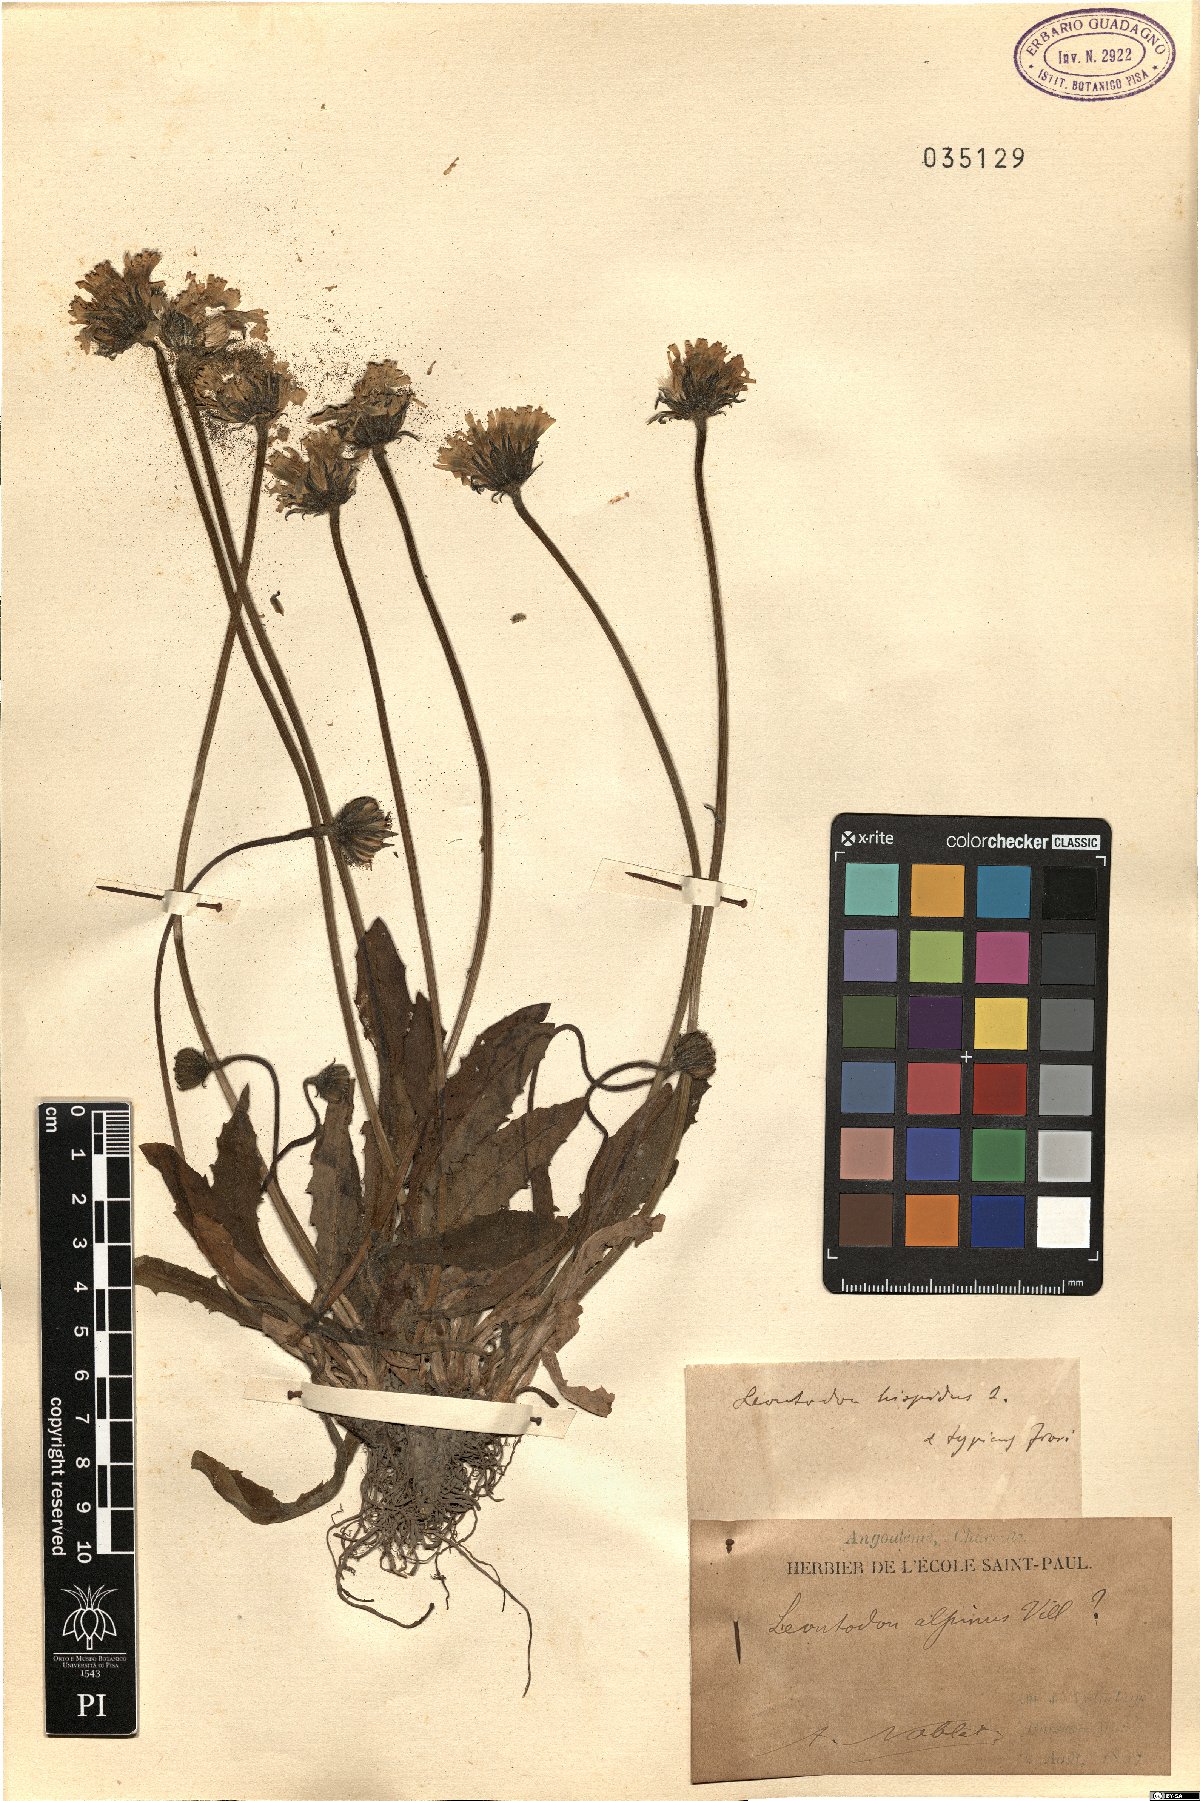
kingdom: Plantae
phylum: Tracheophyta
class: Magnoliopsida
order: Asterales
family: Asteraceae
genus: Leontodon
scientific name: Leontodon hispidus
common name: Rough hawkbit
